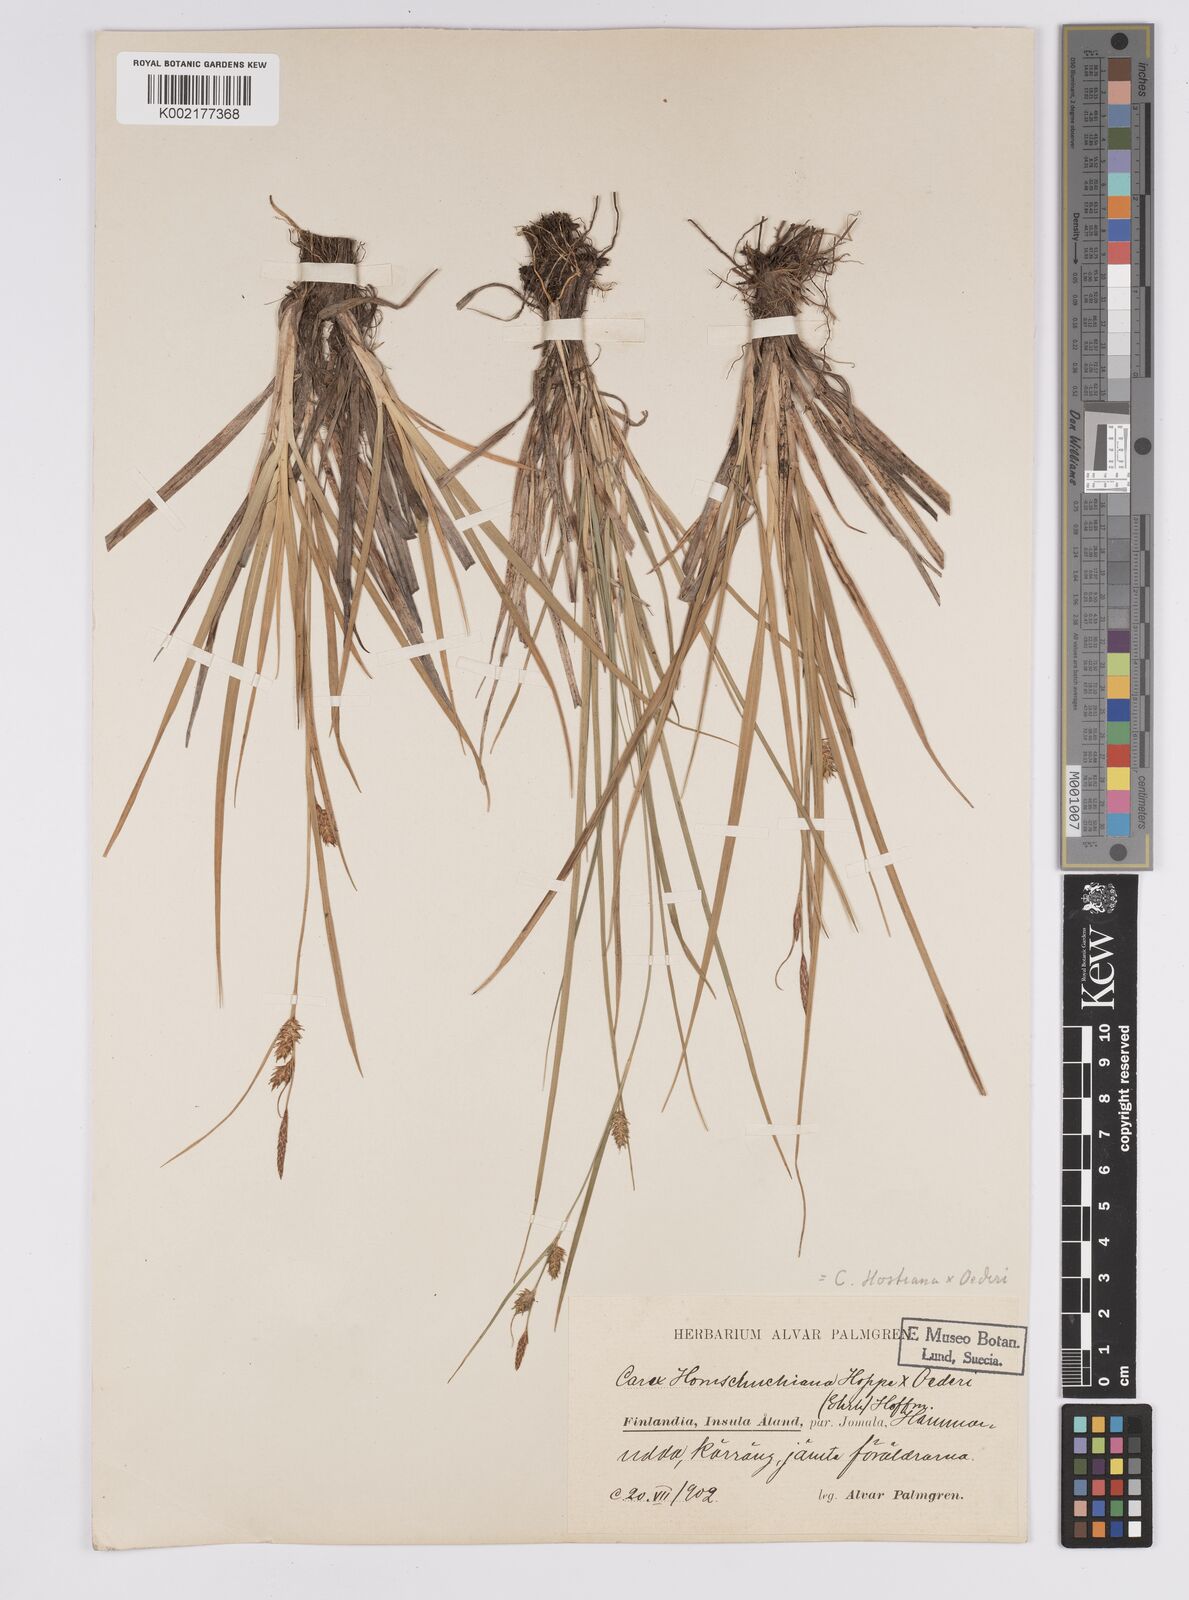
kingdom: Plantae
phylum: Tracheophyta
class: Liliopsida
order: Poales
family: Cyperaceae
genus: Carex
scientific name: Carex hostiana
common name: Tawny sedge
